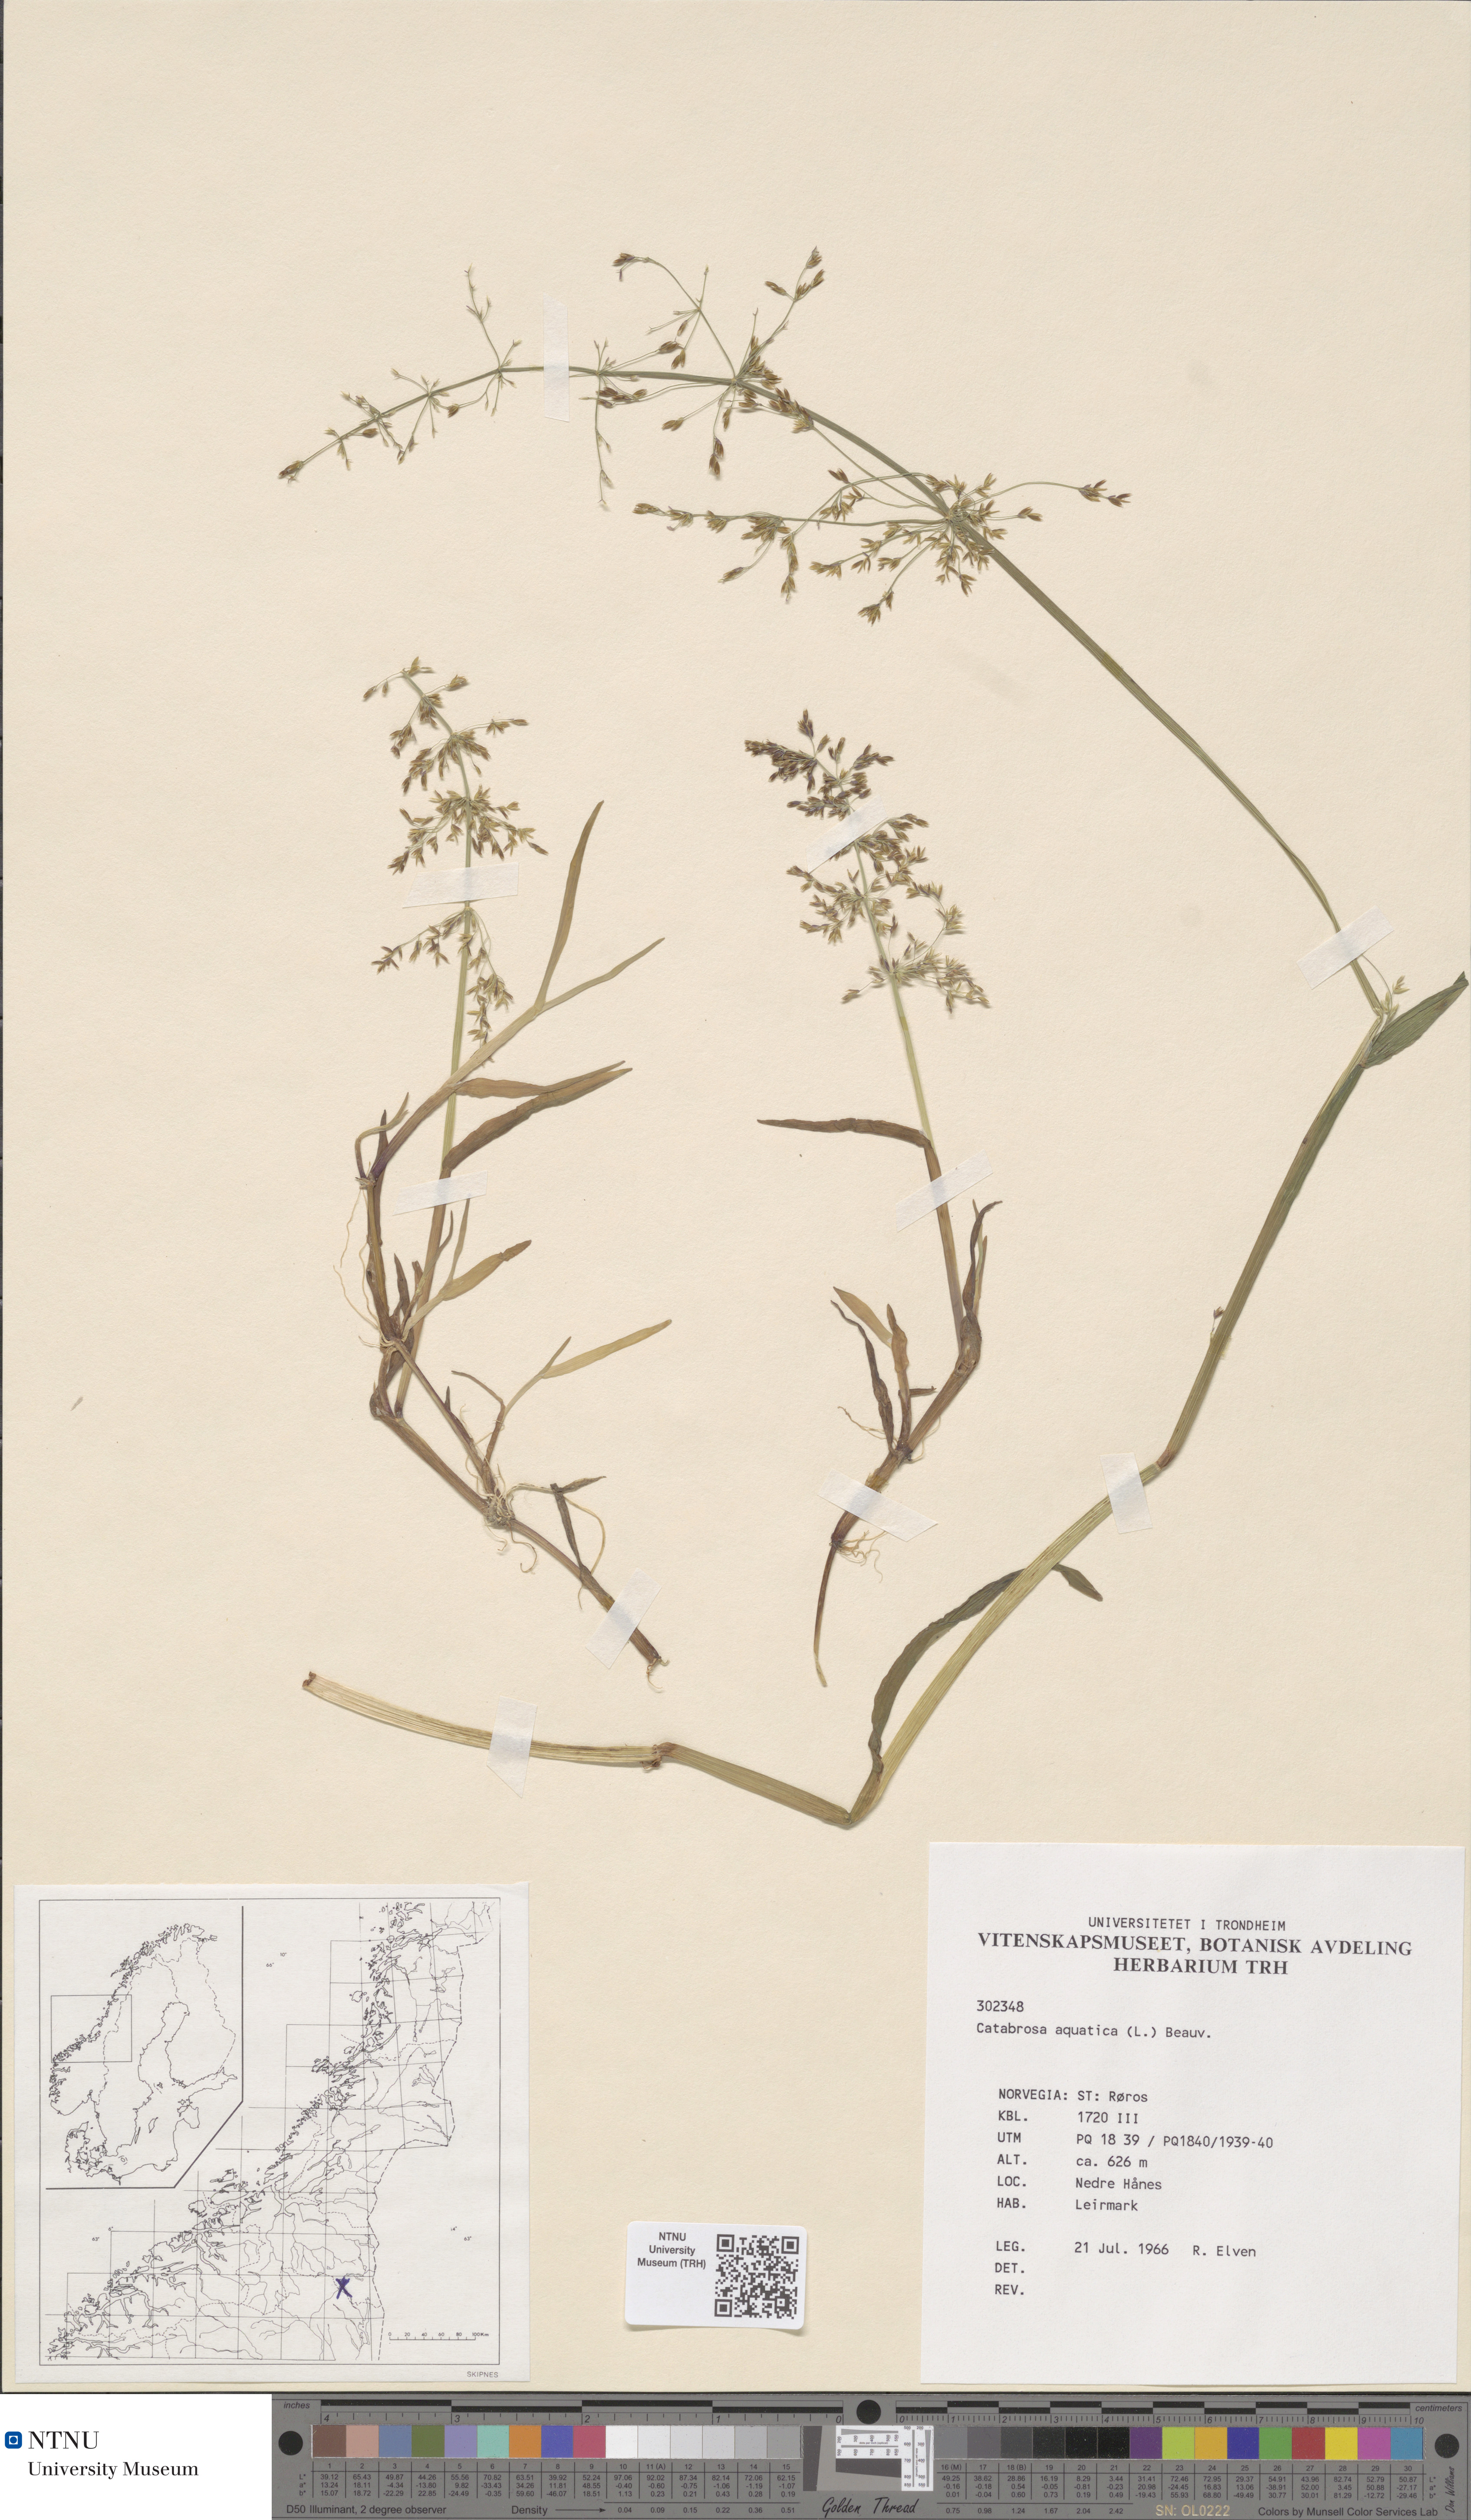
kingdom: Plantae
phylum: Tracheophyta
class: Liliopsida
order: Poales
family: Poaceae
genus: Catabrosa
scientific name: Catabrosa aquatica
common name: Whorl-grass
